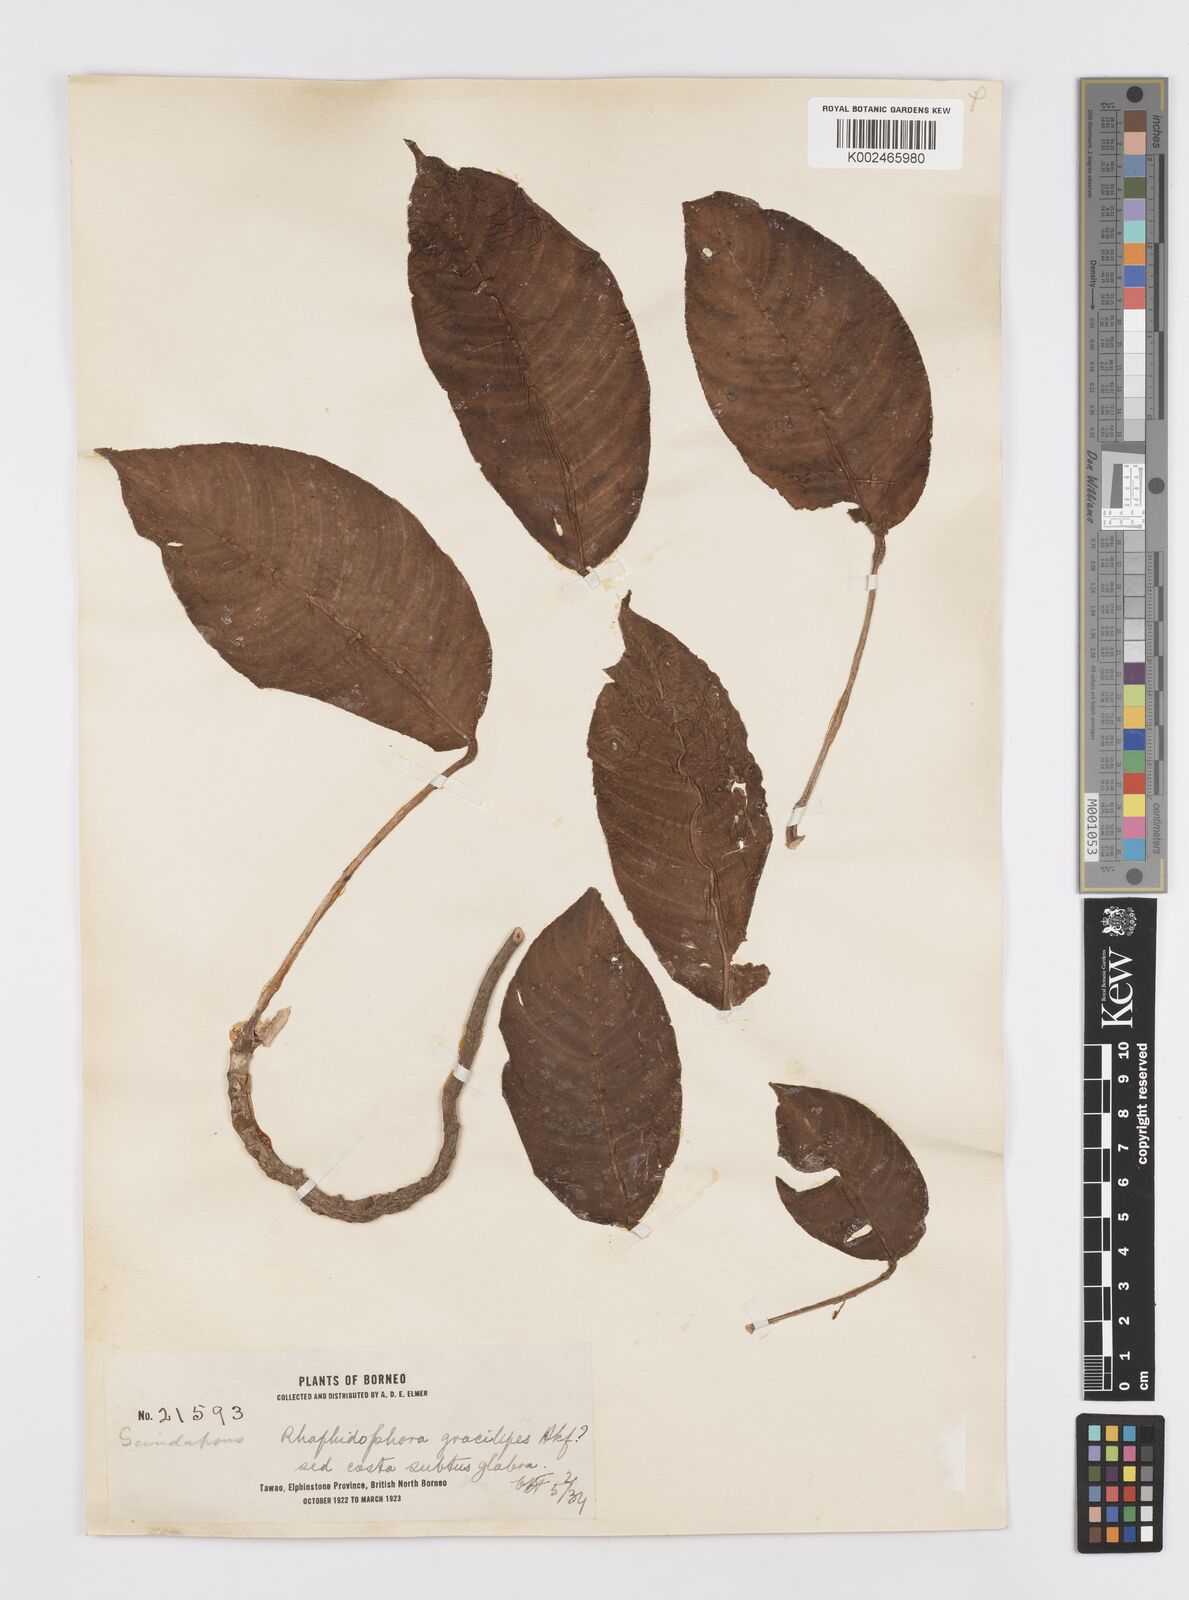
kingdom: Plantae
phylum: Tracheophyta
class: Liliopsida
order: Alismatales
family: Araceae
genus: Rhaphidophora
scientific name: Rhaphidophora puberula
